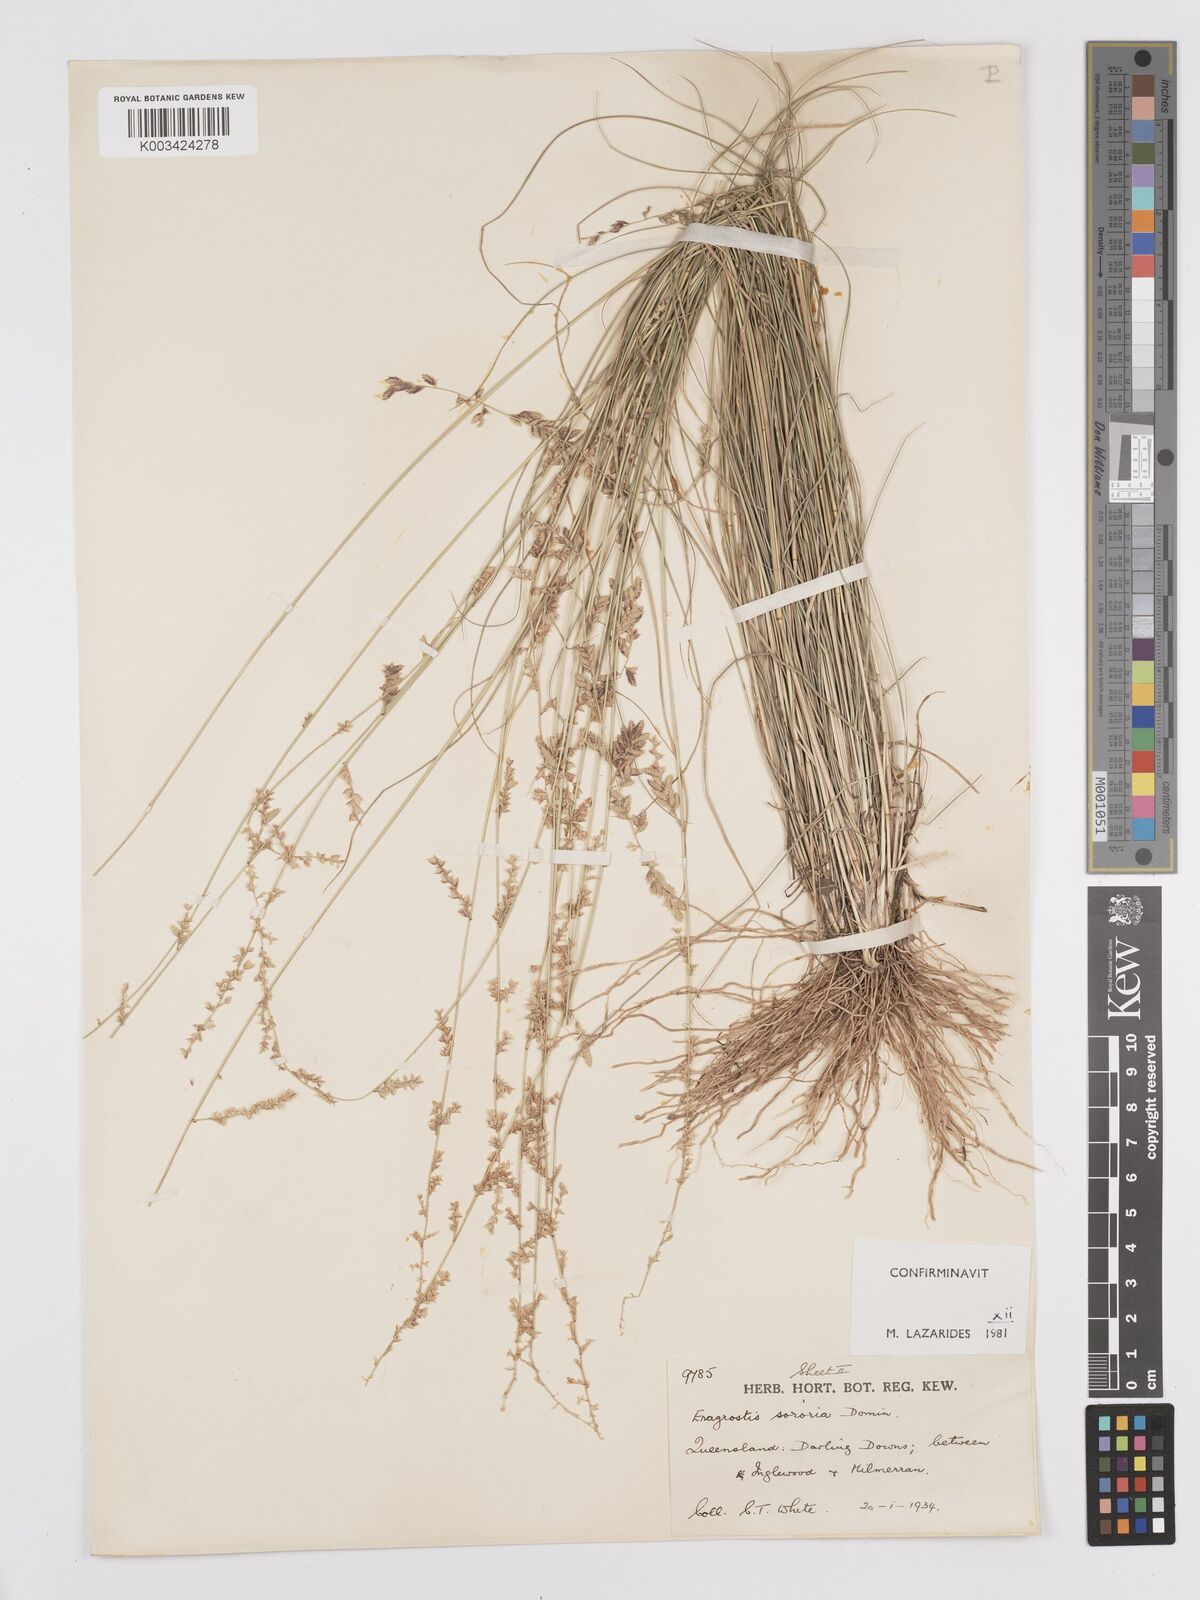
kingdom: Plantae
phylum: Tracheophyta
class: Liliopsida
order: Poales
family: Poaceae
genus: Eragrostis
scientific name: Eragrostis sororia
